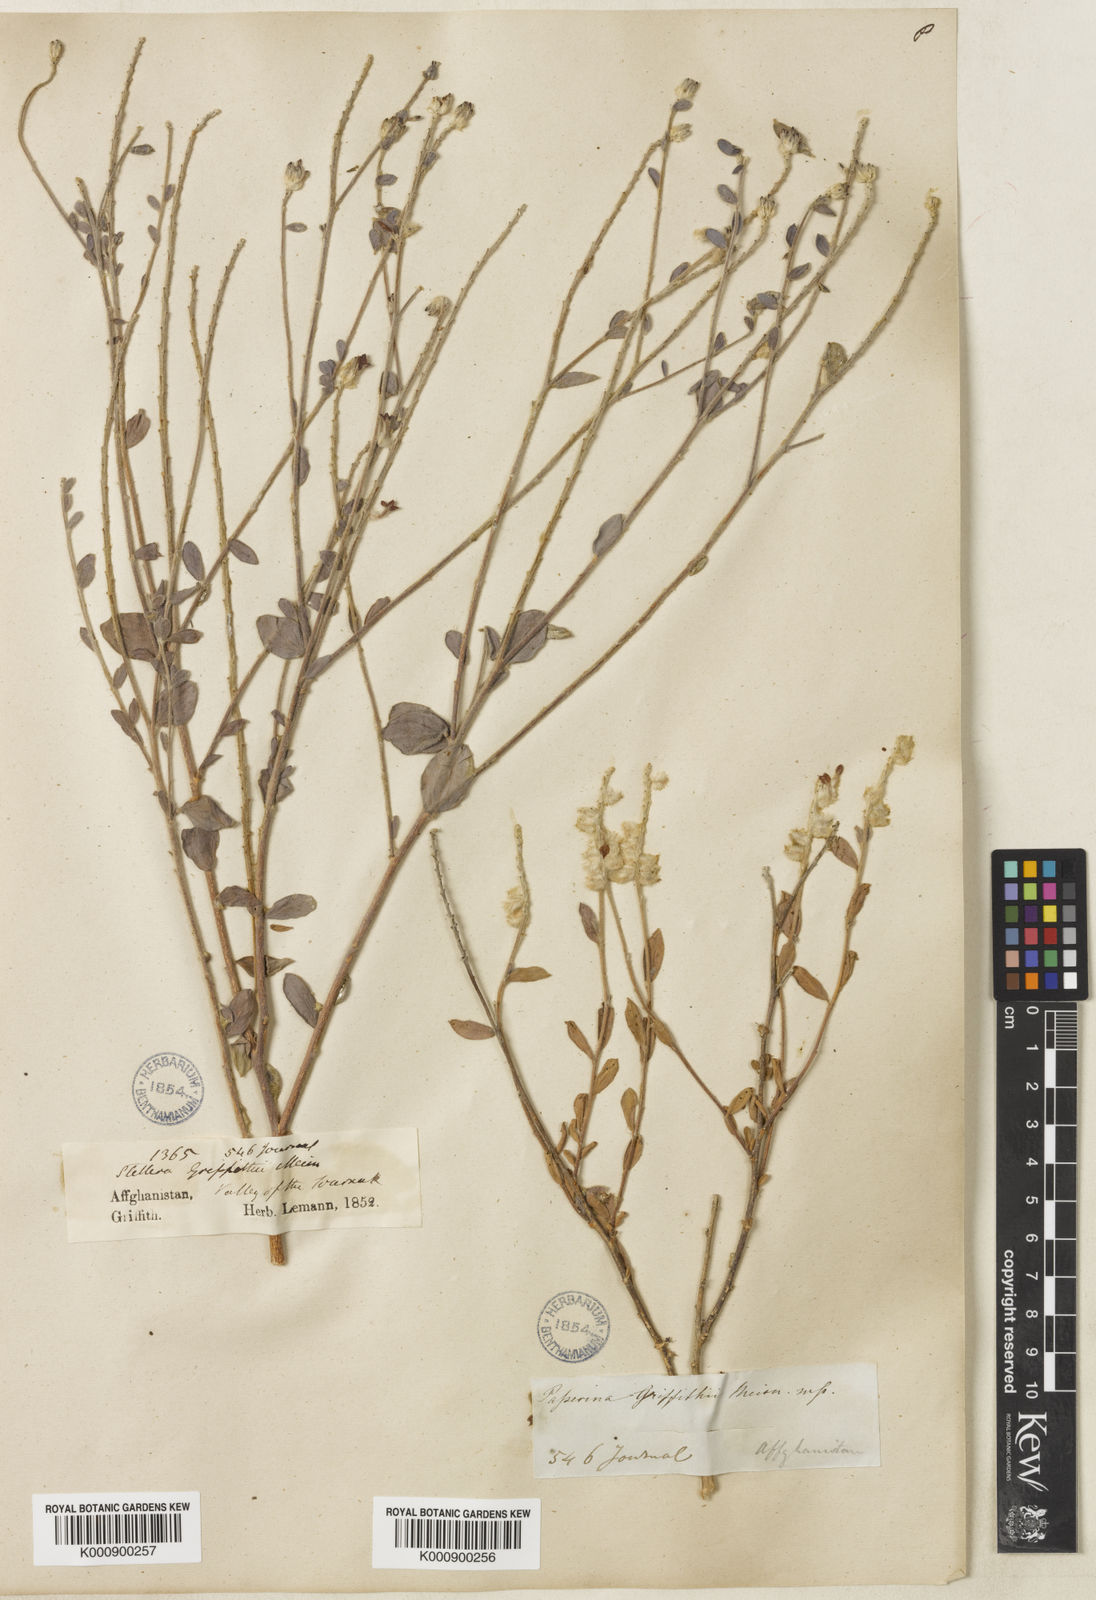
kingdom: Plantae
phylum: Tracheophyta
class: Magnoliopsida
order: Malvales
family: Thymelaeaceae
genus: Diarthron
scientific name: Diarthron lessertii
